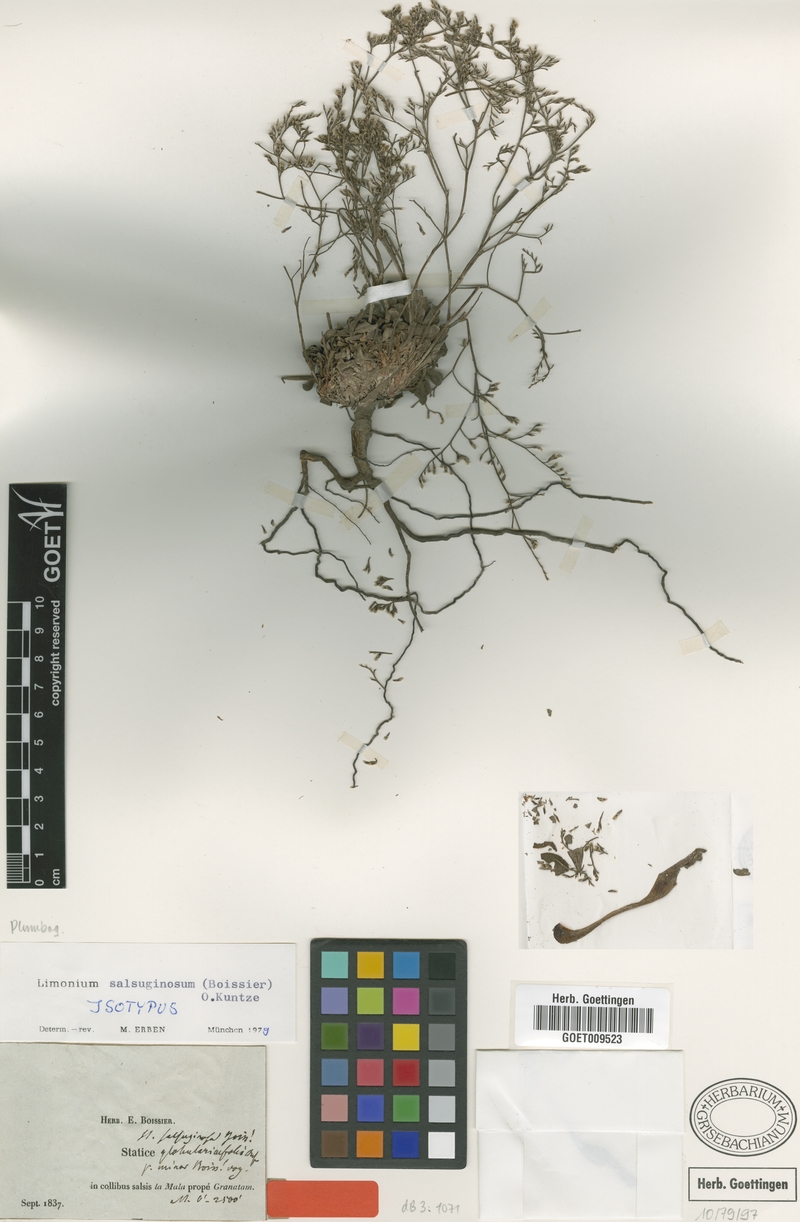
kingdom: Plantae
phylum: Tracheophyta
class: Magnoliopsida
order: Caryophyllales
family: Plumbaginaceae
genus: Limonium
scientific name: Limonium supinum
